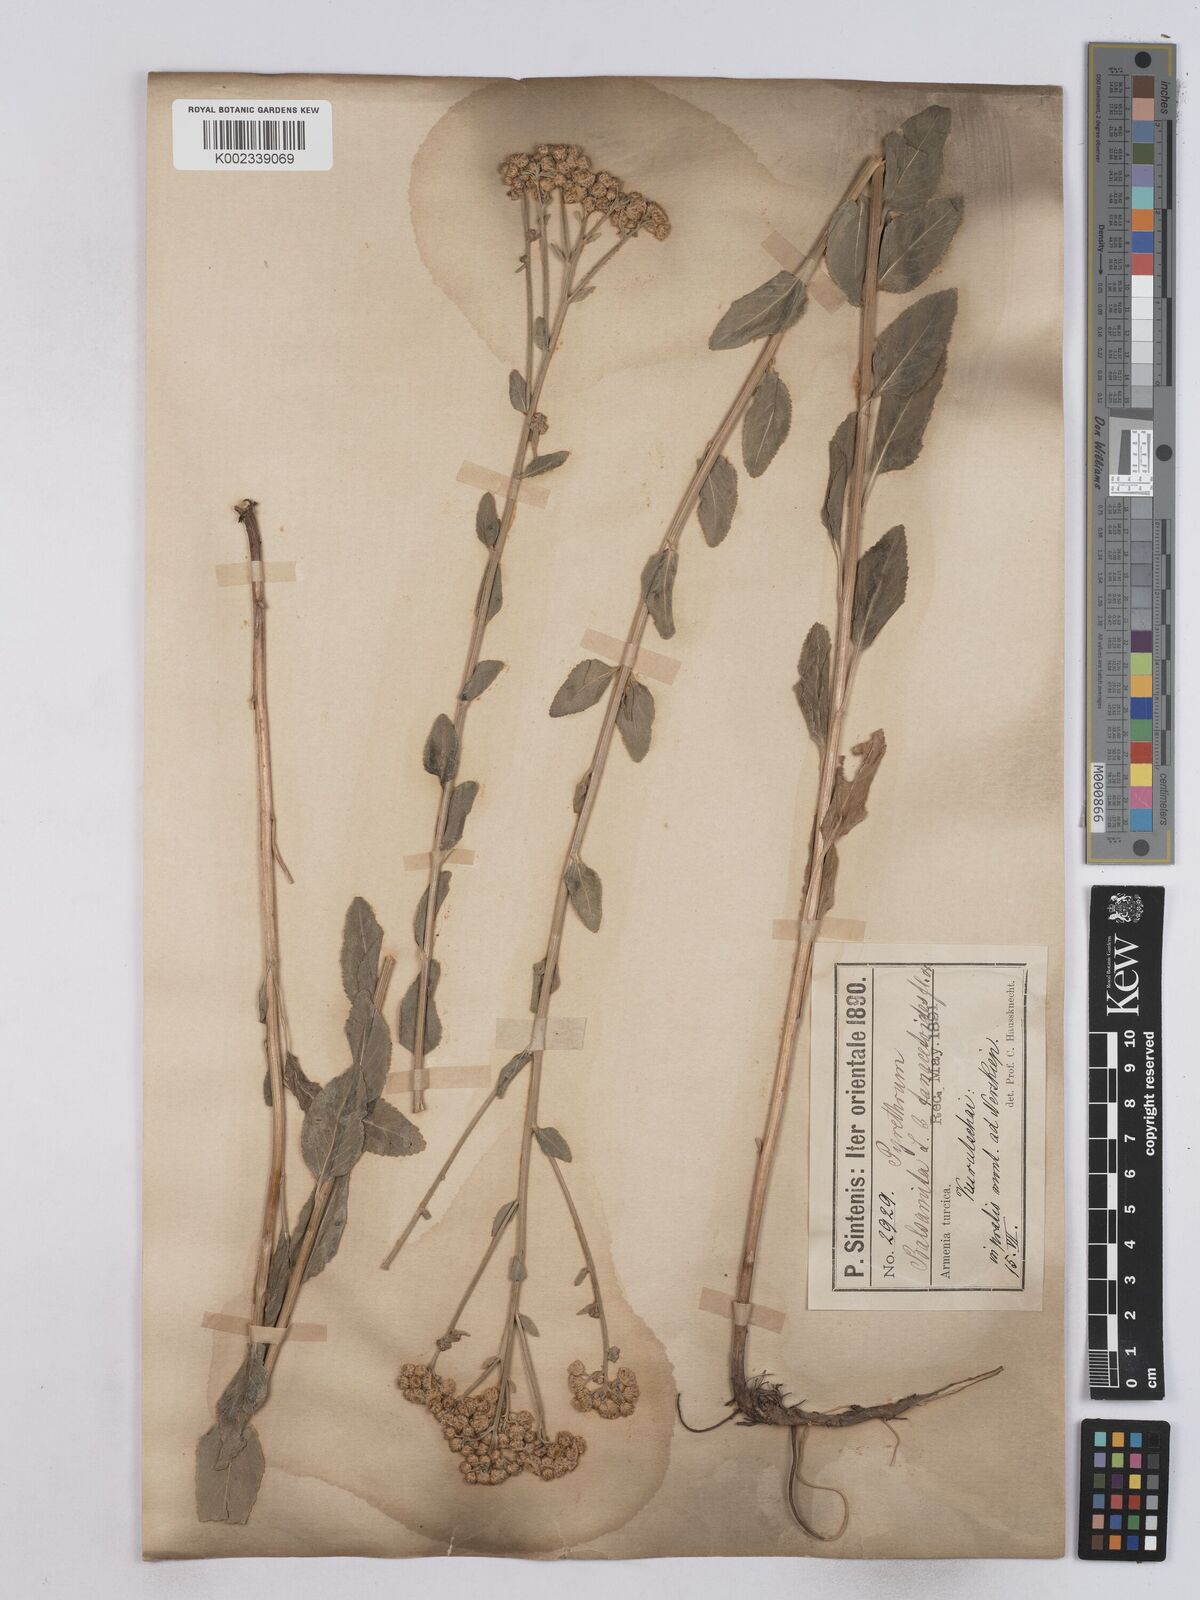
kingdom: Plantae
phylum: Tracheophyta
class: Magnoliopsida
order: Asterales
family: Asteraceae
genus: Tanacetum
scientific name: Tanacetum balsamita
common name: Costmary
